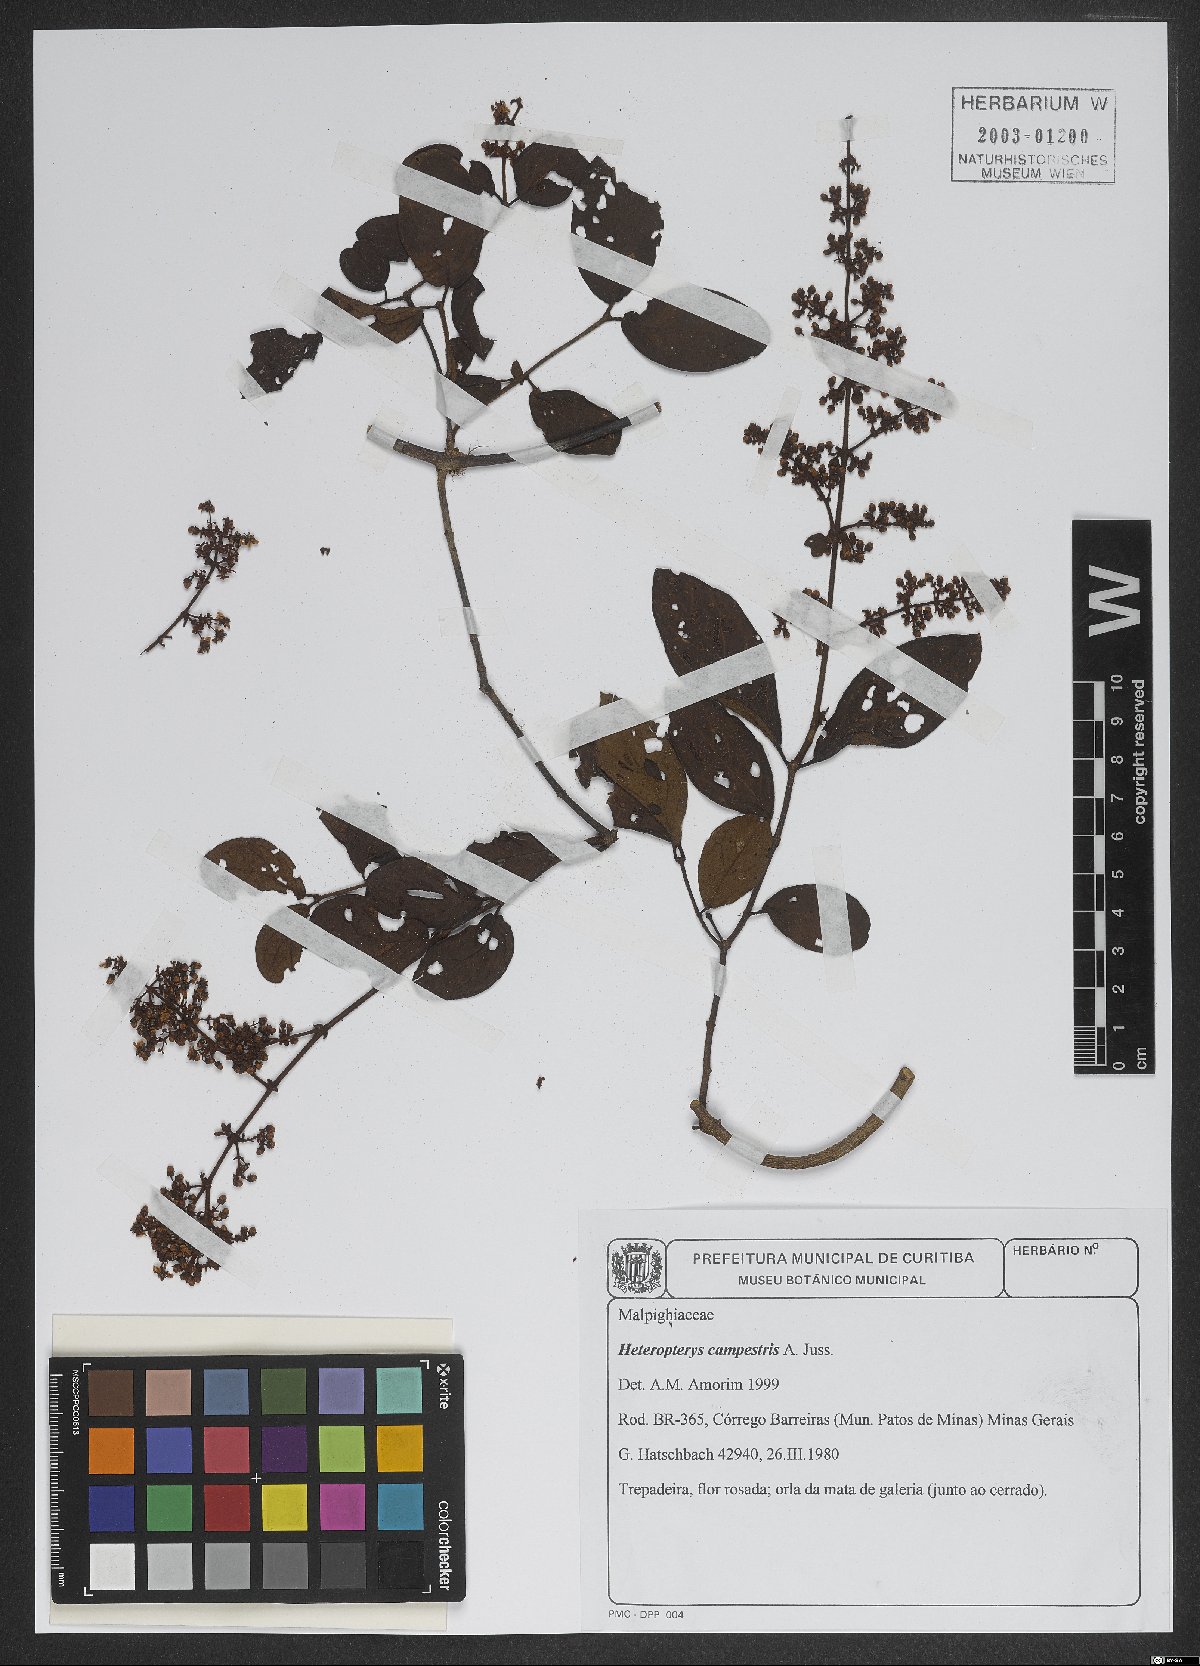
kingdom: Plantae
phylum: Tracheophyta
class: Magnoliopsida
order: Malpighiales
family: Malpighiaceae
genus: Heteropterys
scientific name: Heteropterys campestris
